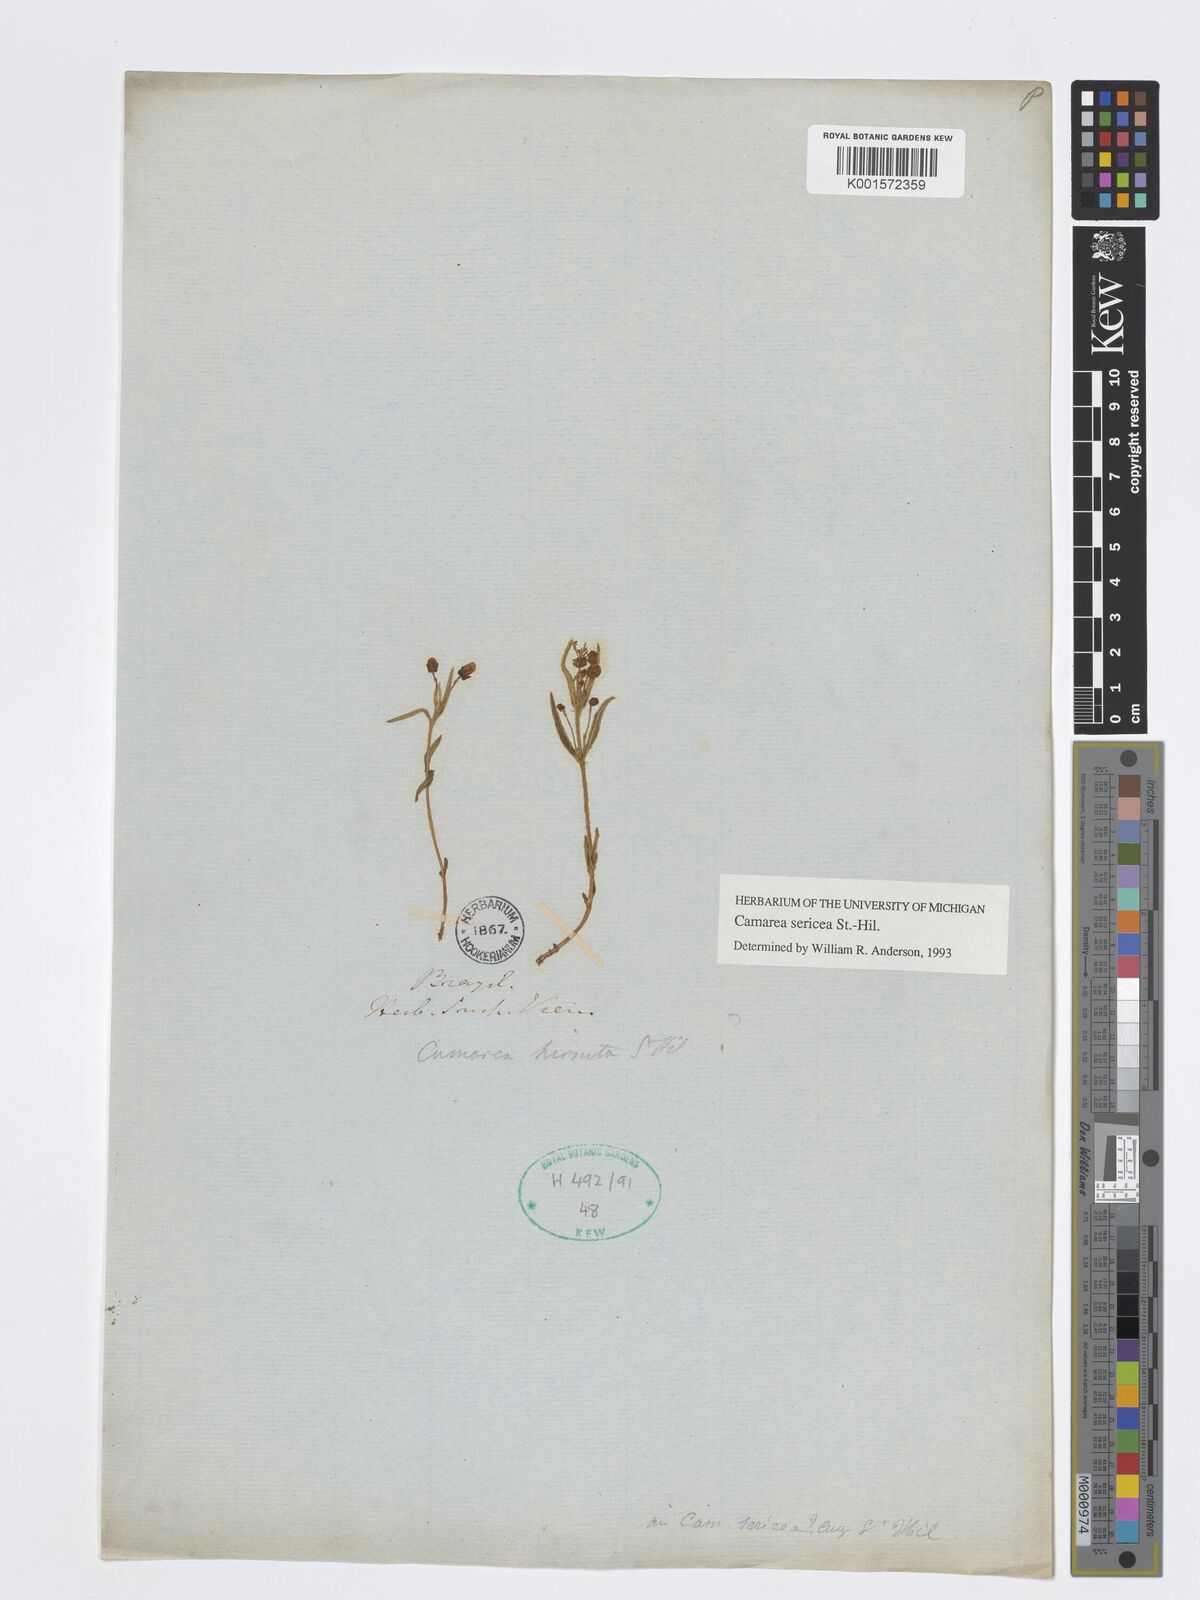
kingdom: Plantae
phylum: Tracheophyta
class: Magnoliopsida
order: Malpighiales
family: Malpighiaceae
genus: Camarea
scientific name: Camarea sericea
